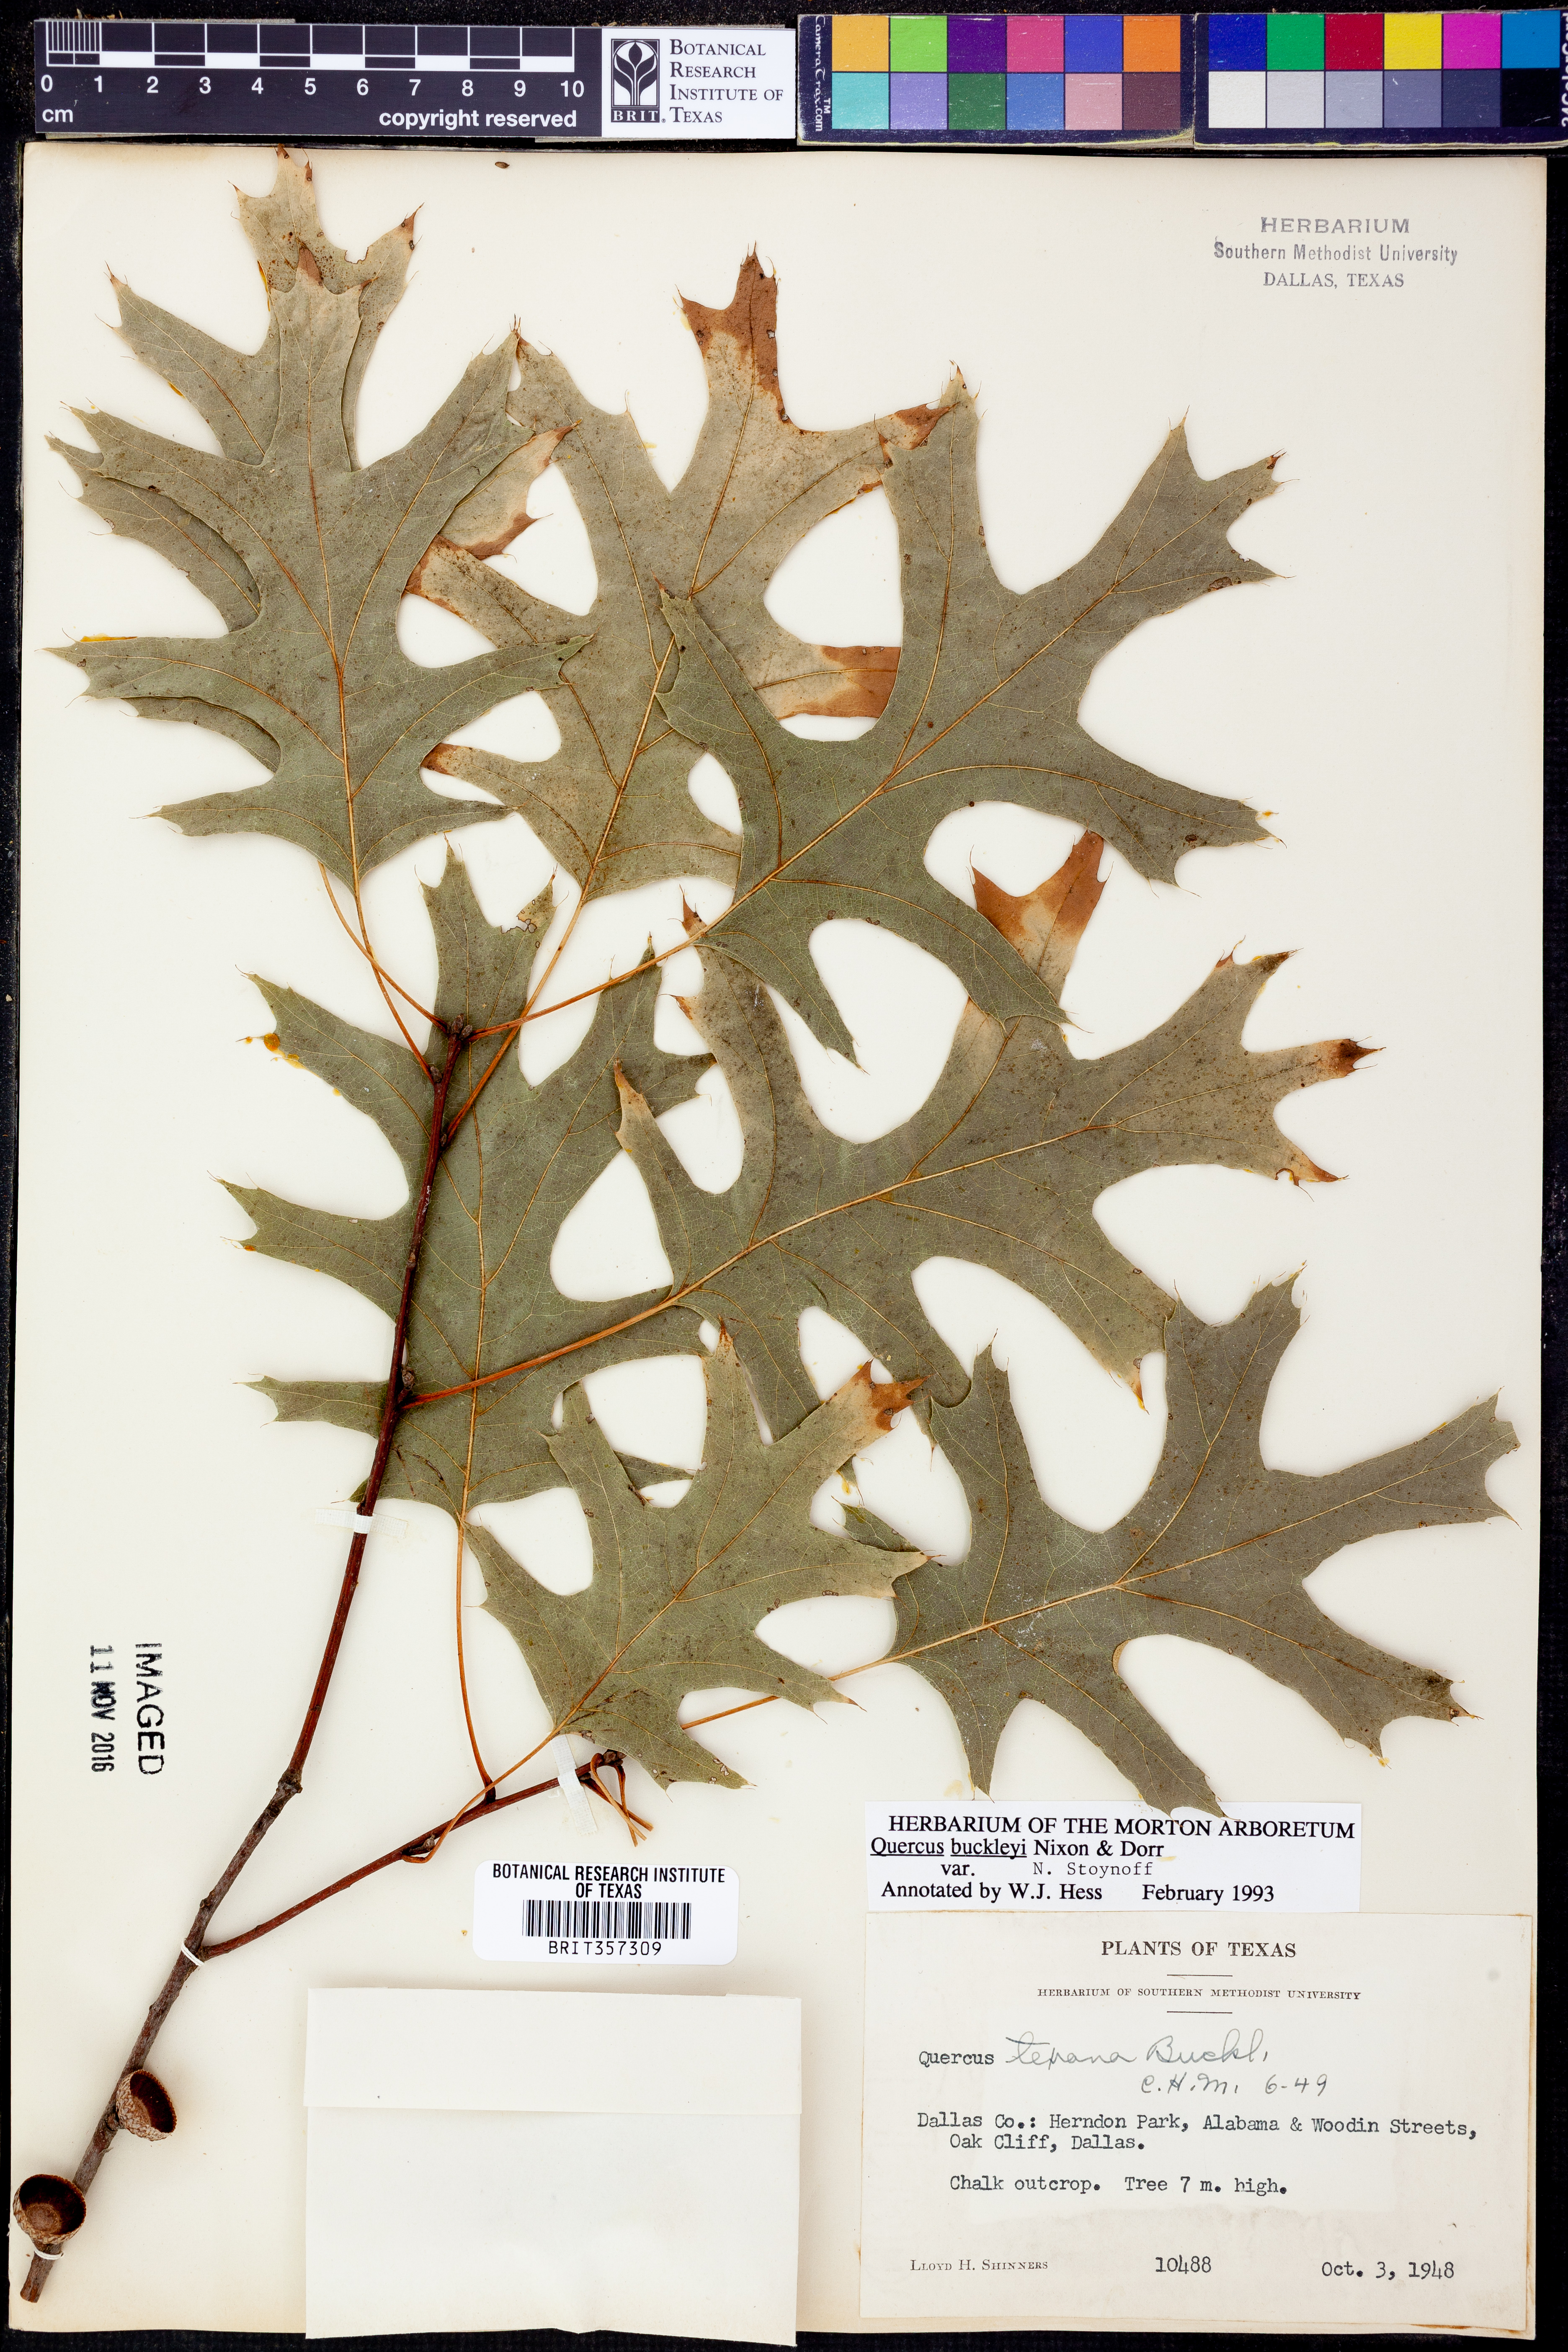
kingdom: Plantae
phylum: Tracheophyta
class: Magnoliopsida
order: Fagales
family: Fagaceae
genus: Quercus
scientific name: Quercus buckleyi
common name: Buckley oak
